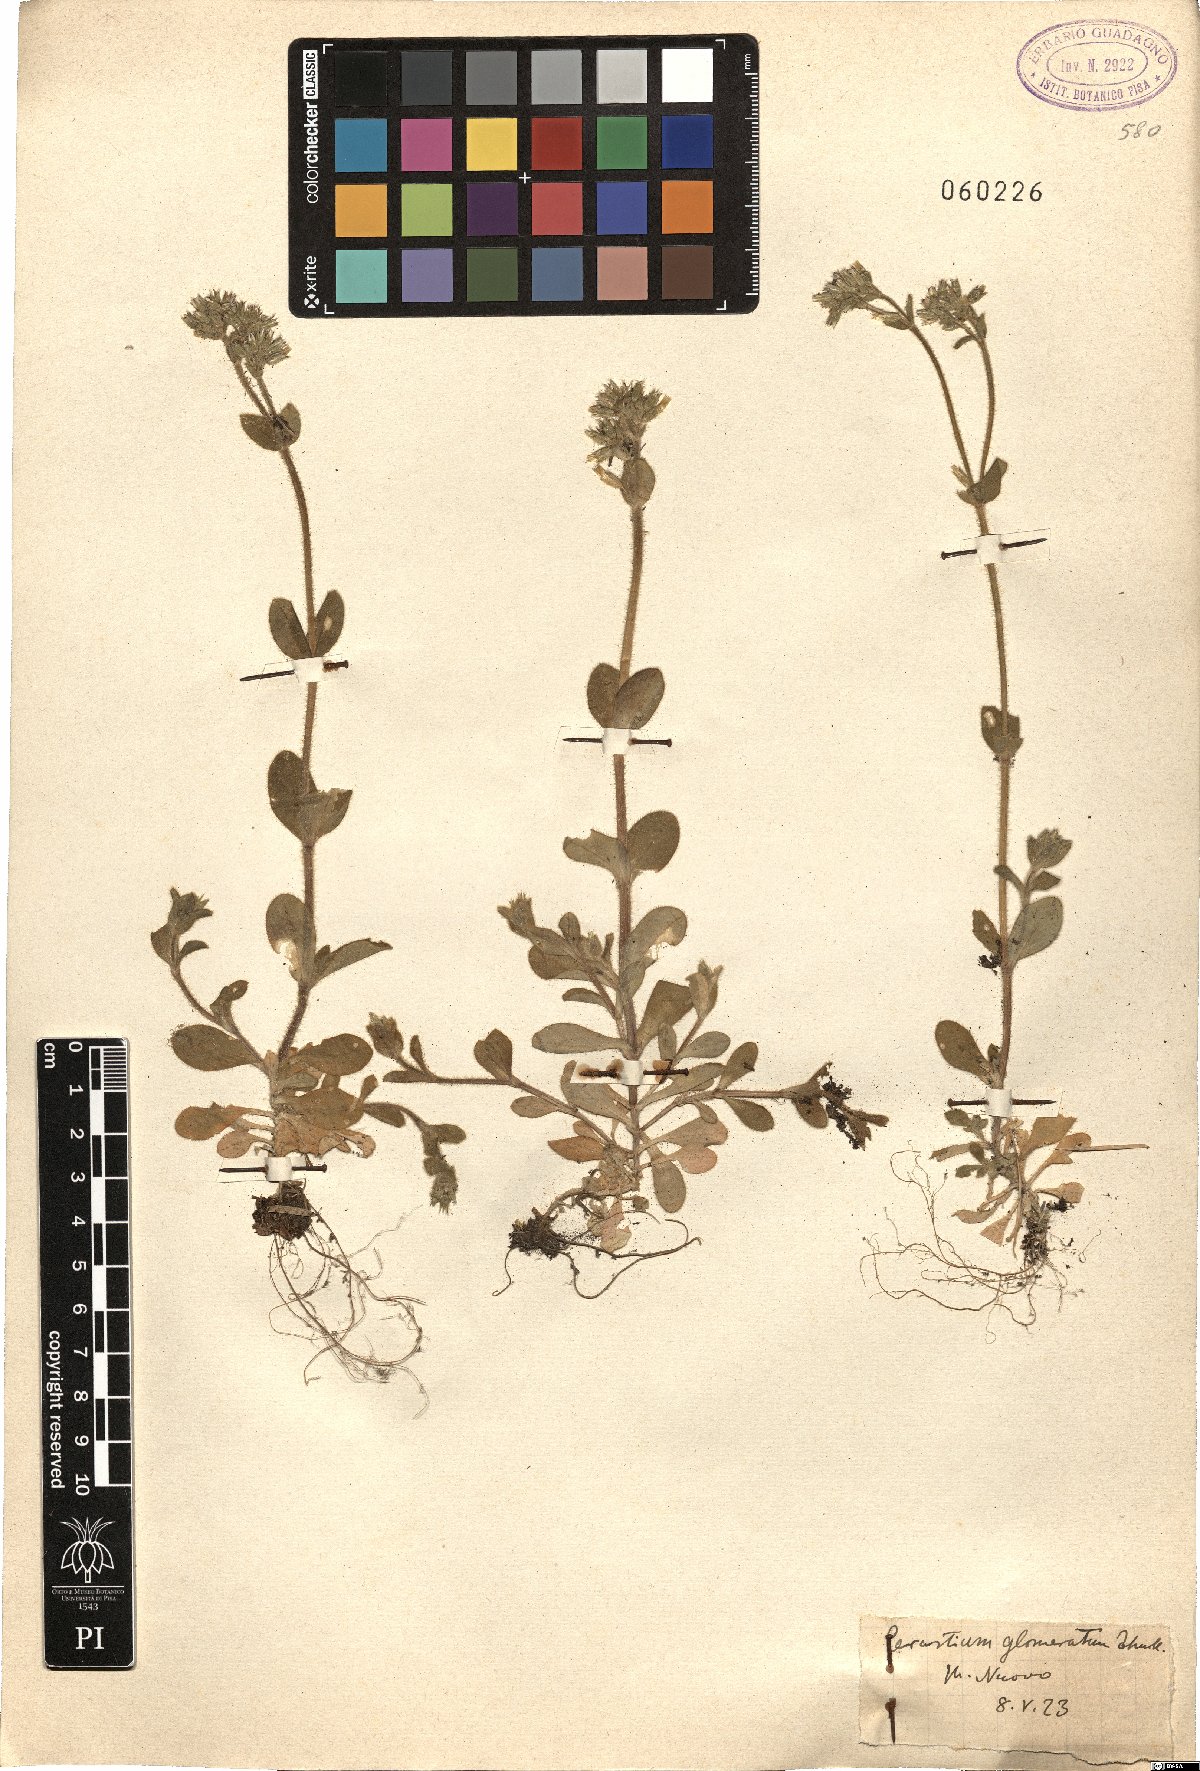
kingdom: Plantae
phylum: Tracheophyta
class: Magnoliopsida
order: Caryophyllales
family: Caryophyllaceae
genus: Cerastium
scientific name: Cerastium glomeratum
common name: Sticky chickweed
